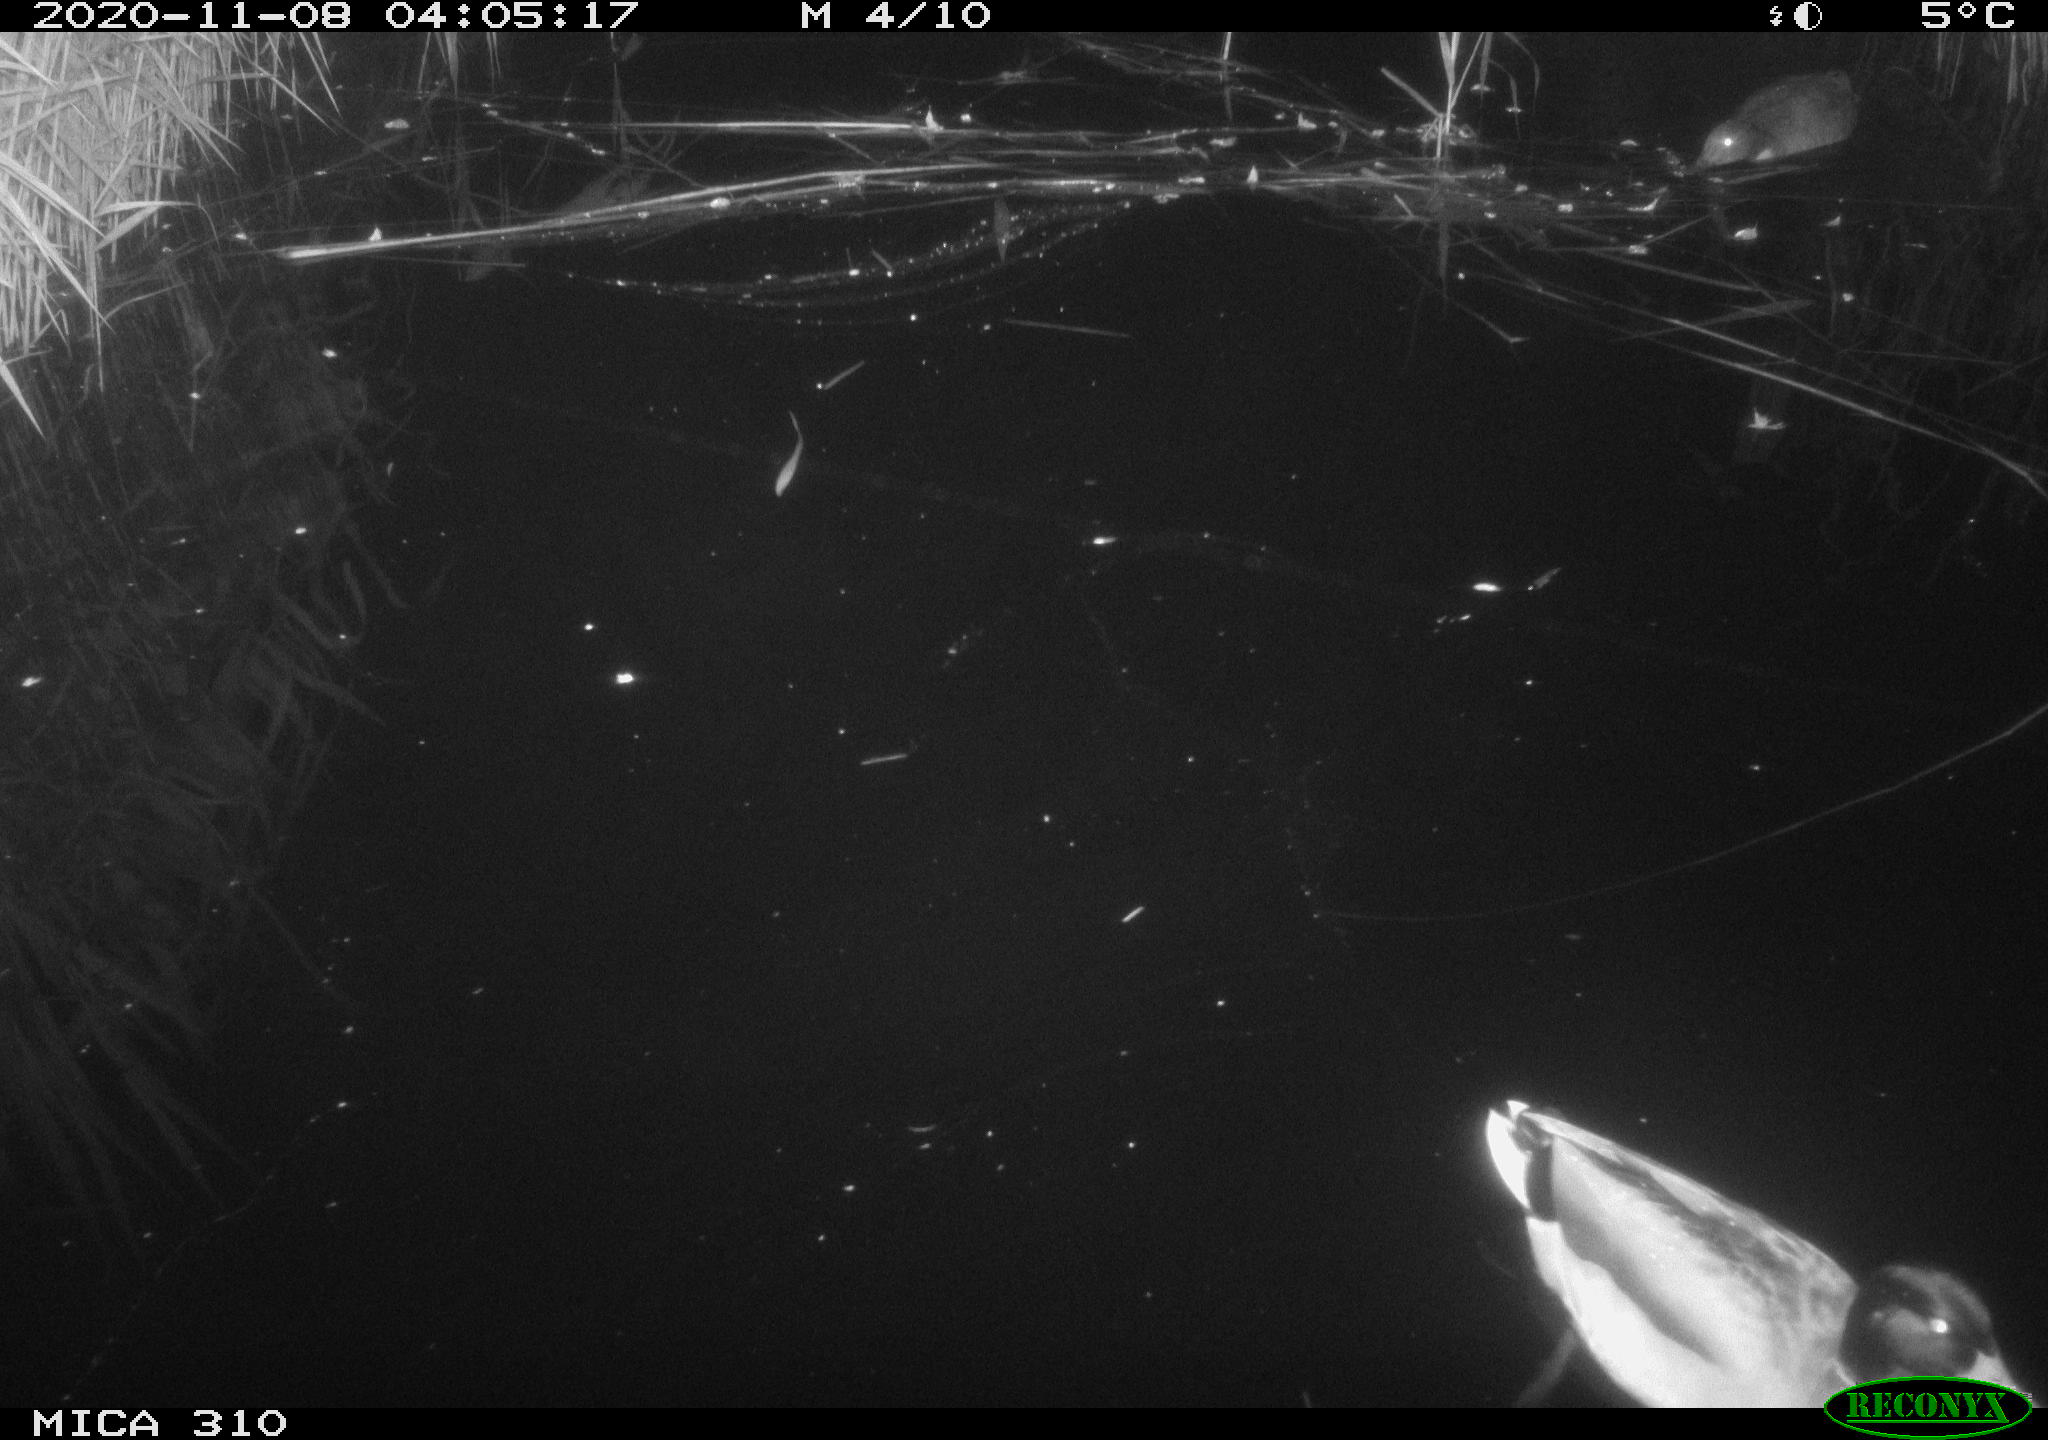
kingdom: Animalia
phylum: Chordata
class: Aves
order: Anseriformes
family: Anatidae
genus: Mareca
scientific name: Mareca strepera
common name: Gadwall
